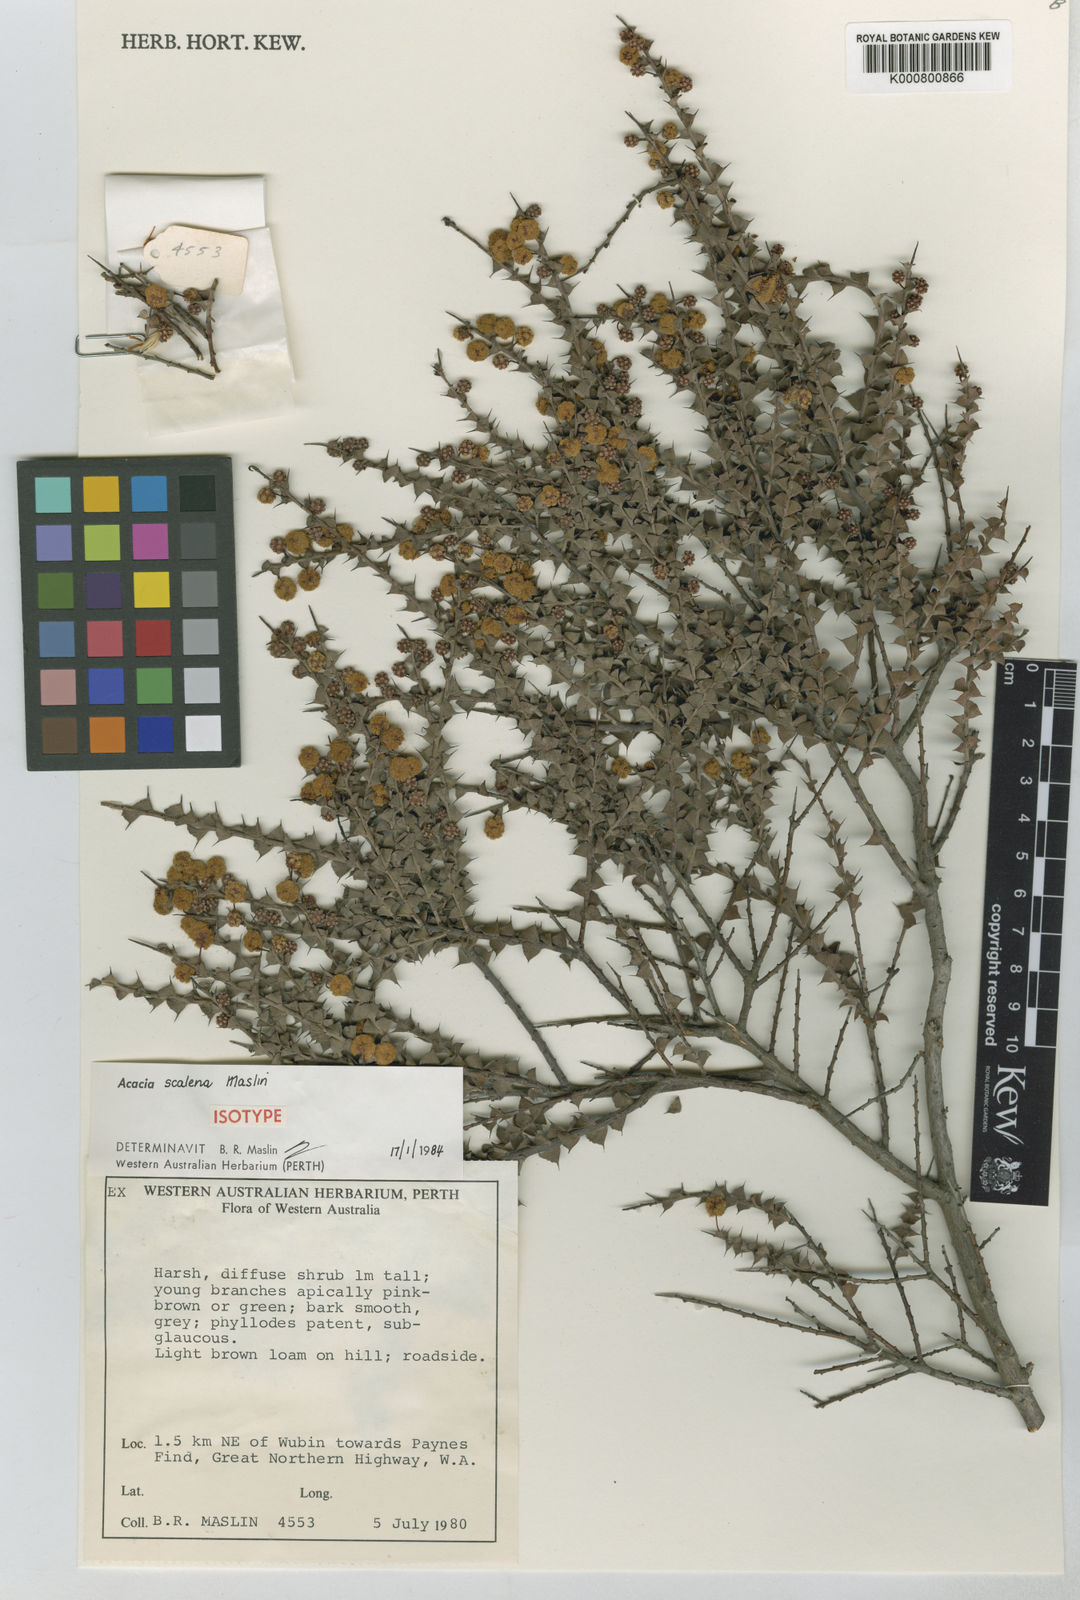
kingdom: Plantae
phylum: Tracheophyta
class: Magnoliopsida
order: Fabales
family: Fabaceae
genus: Acacia
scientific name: Acacia scalena
